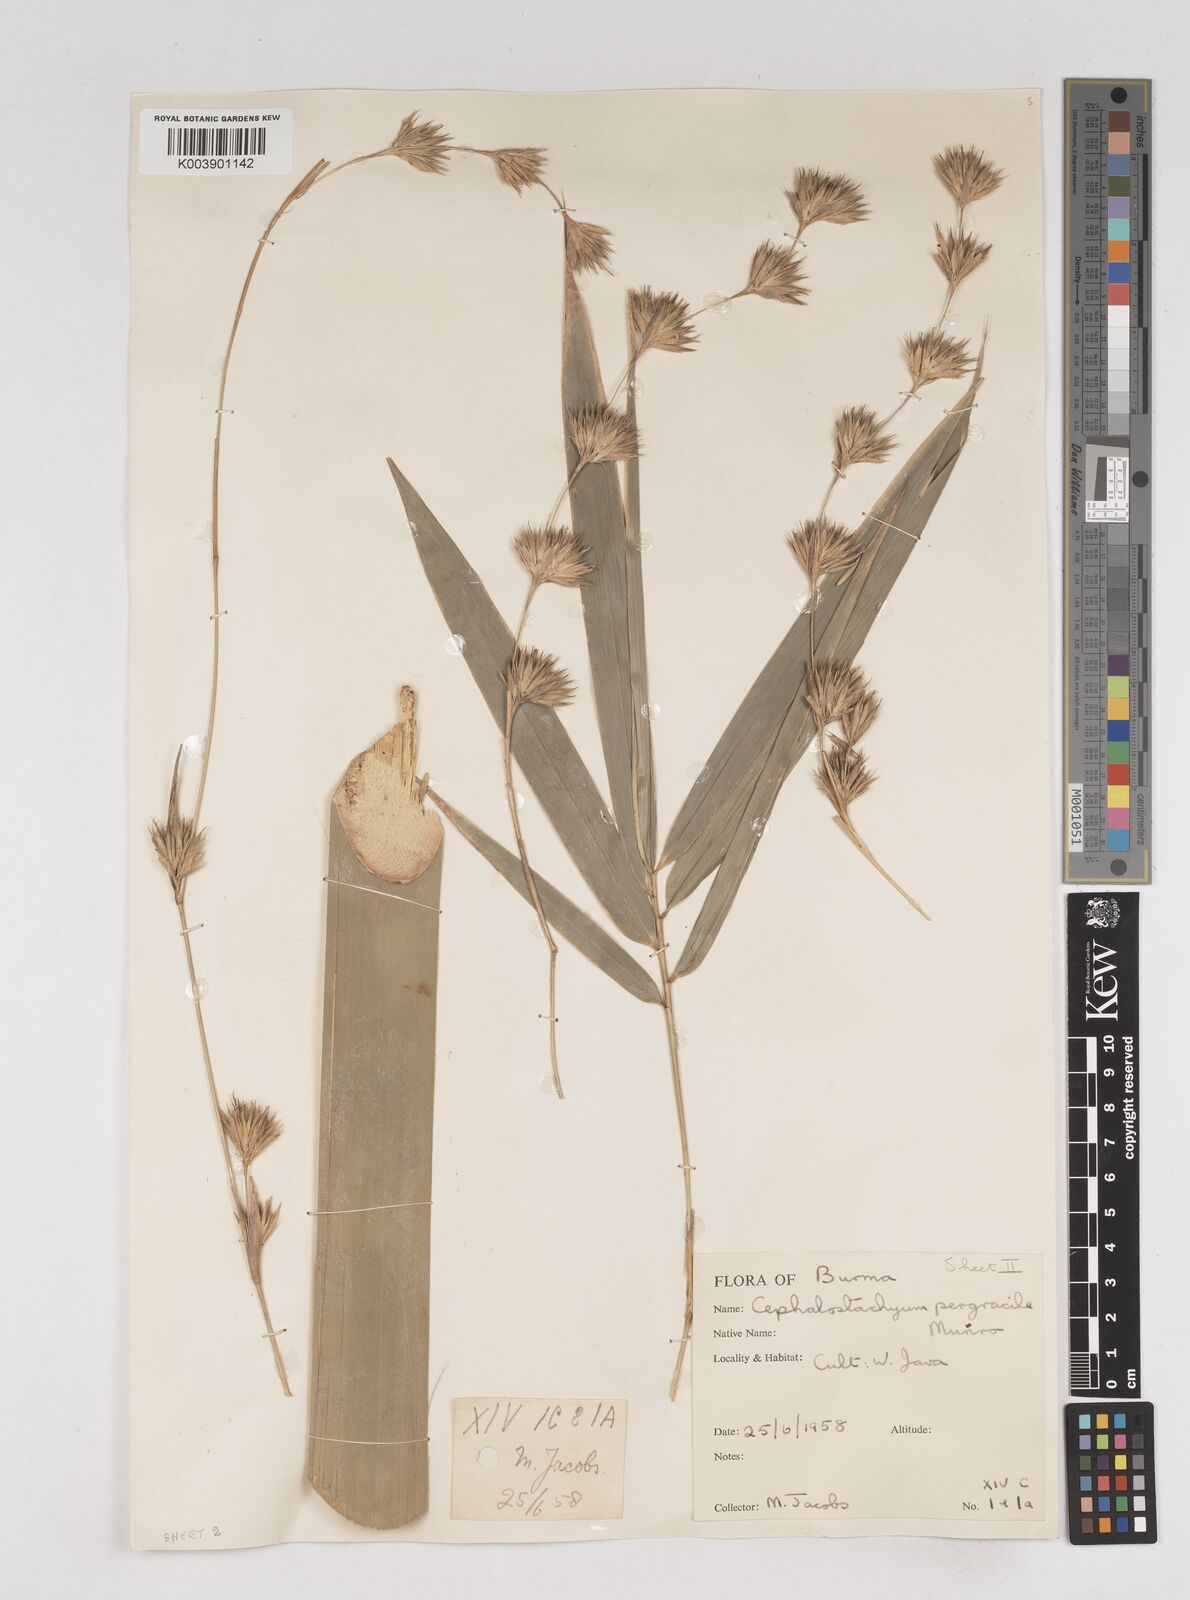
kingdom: Plantae
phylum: Tracheophyta
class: Liliopsida
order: Poales
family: Poaceae
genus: Schizostachyum
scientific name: Schizostachyum pergracile
